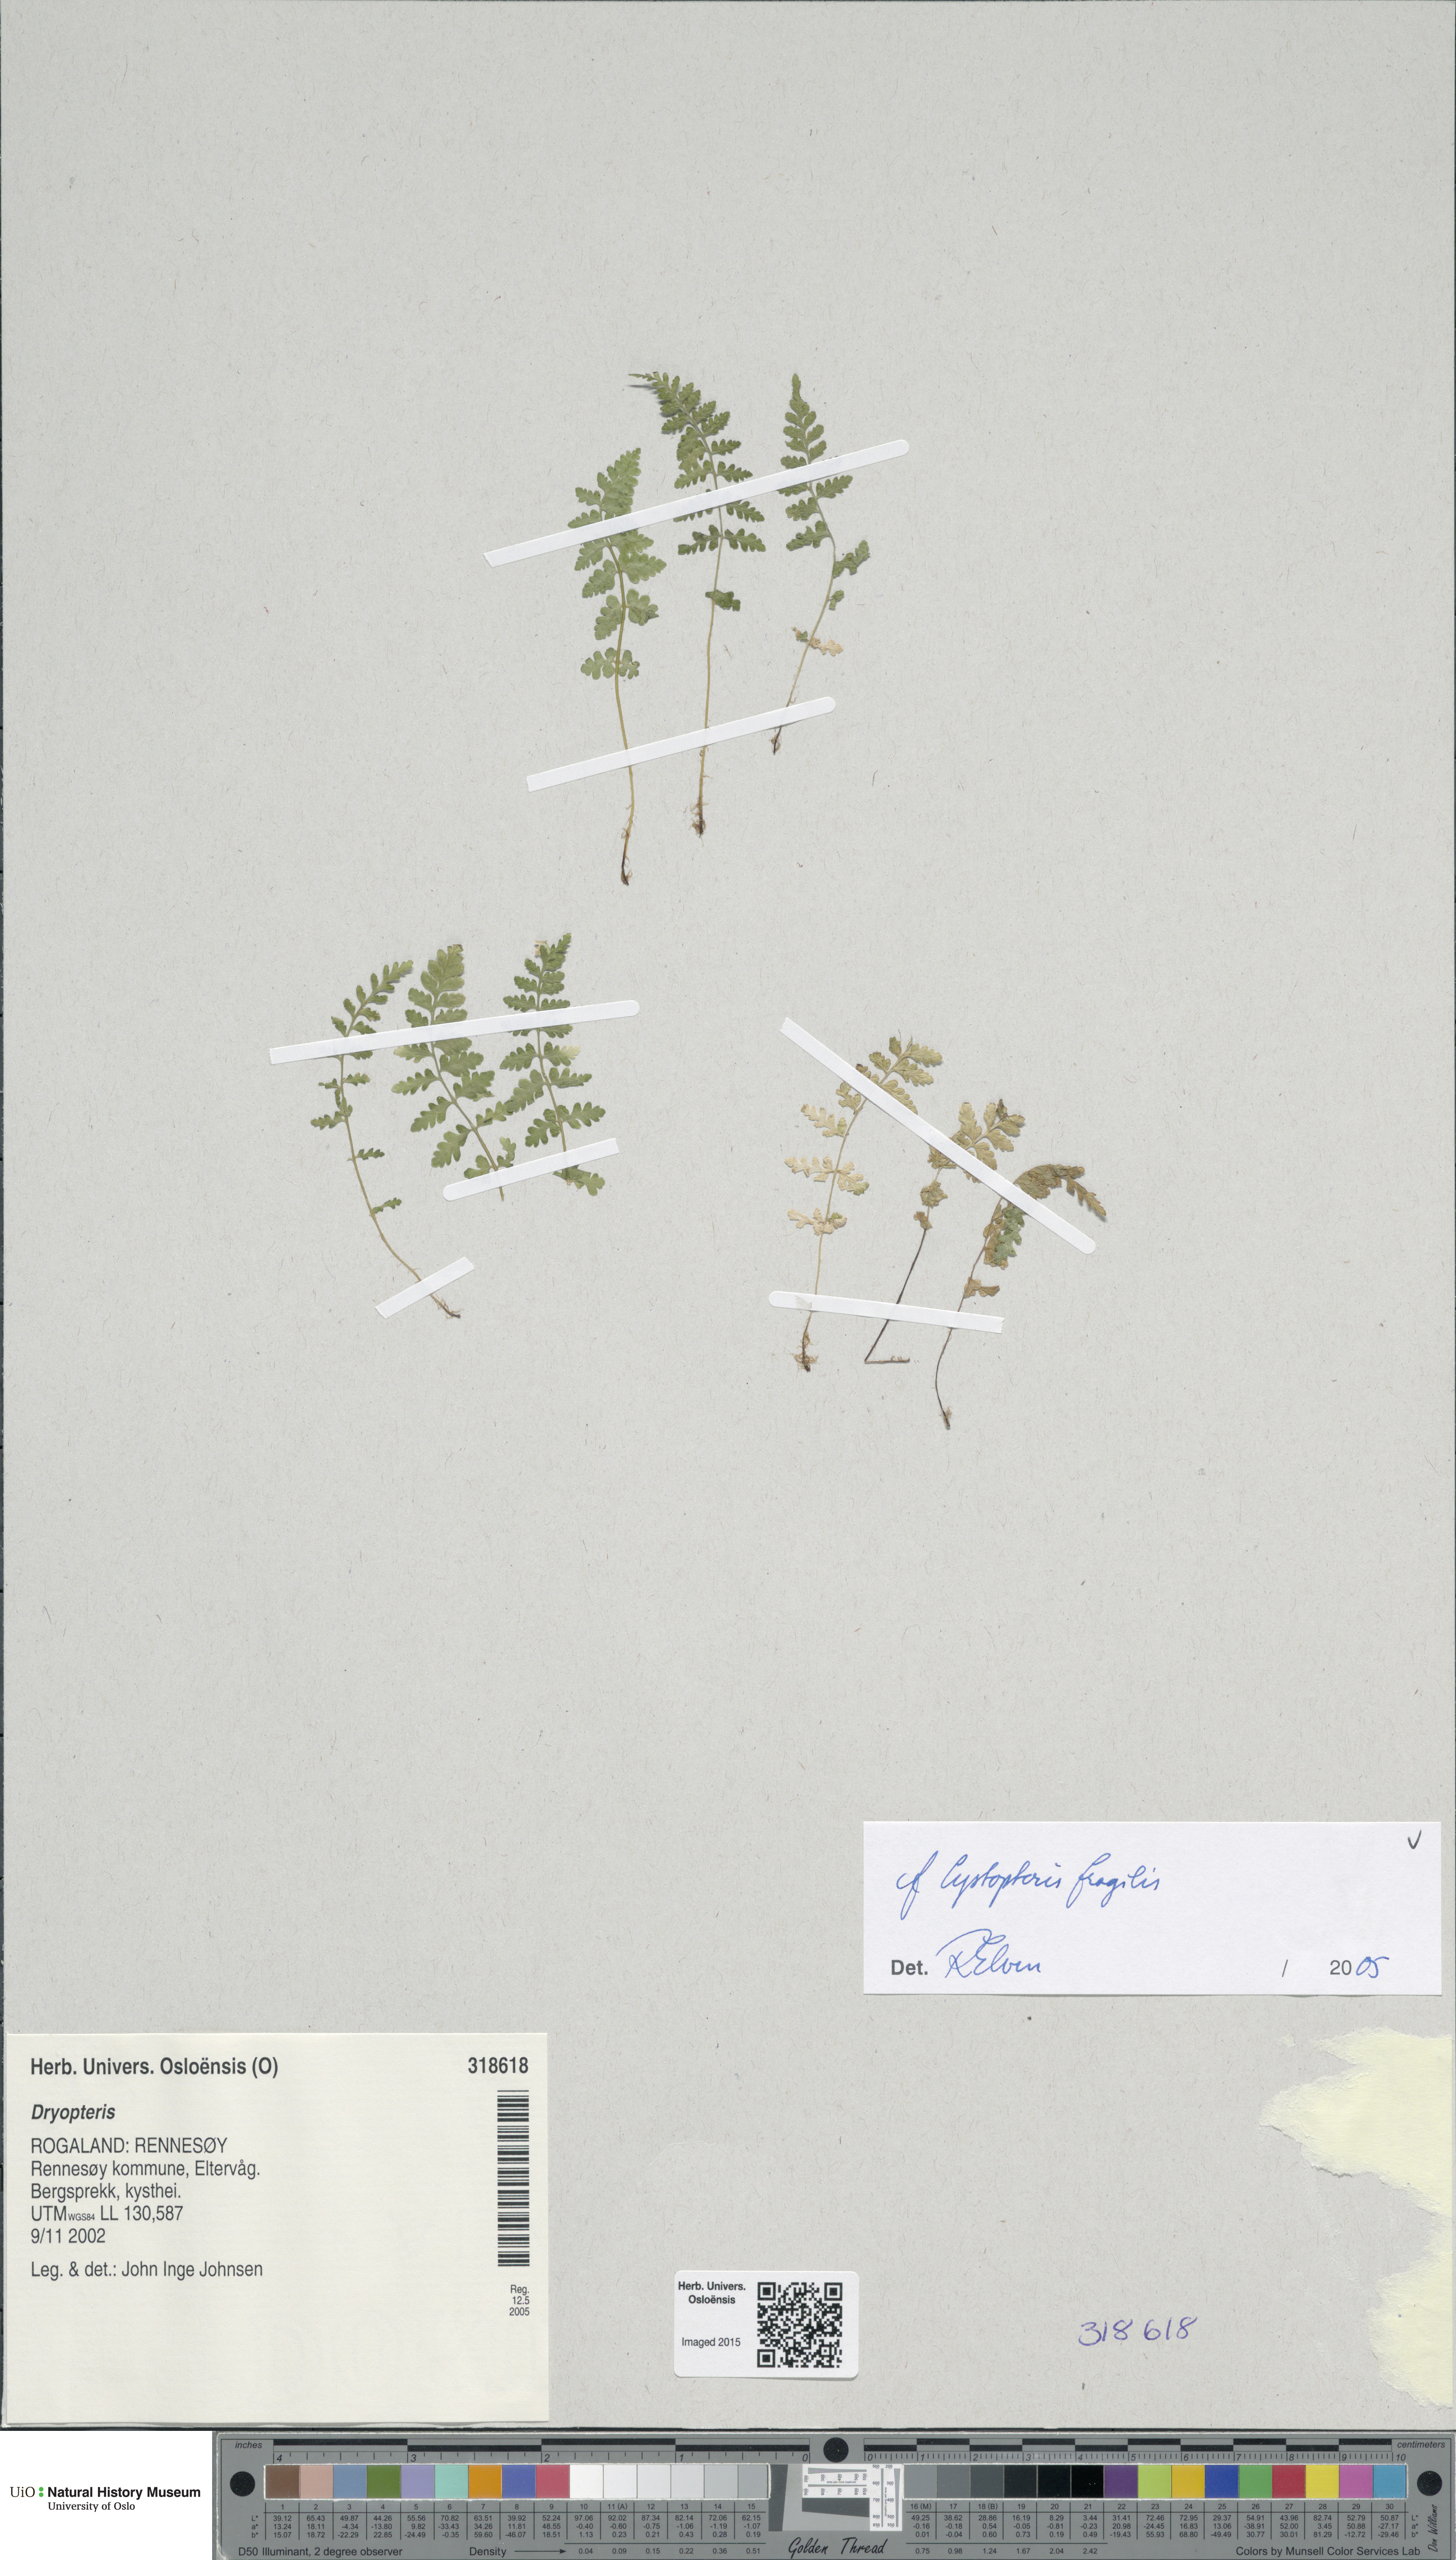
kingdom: Plantae
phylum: Tracheophyta
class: Polypodiopsida
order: Polypodiales
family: Cystopteridaceae
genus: Cystopteris
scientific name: Cystopteris fragilis
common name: Brittle bladder fern
